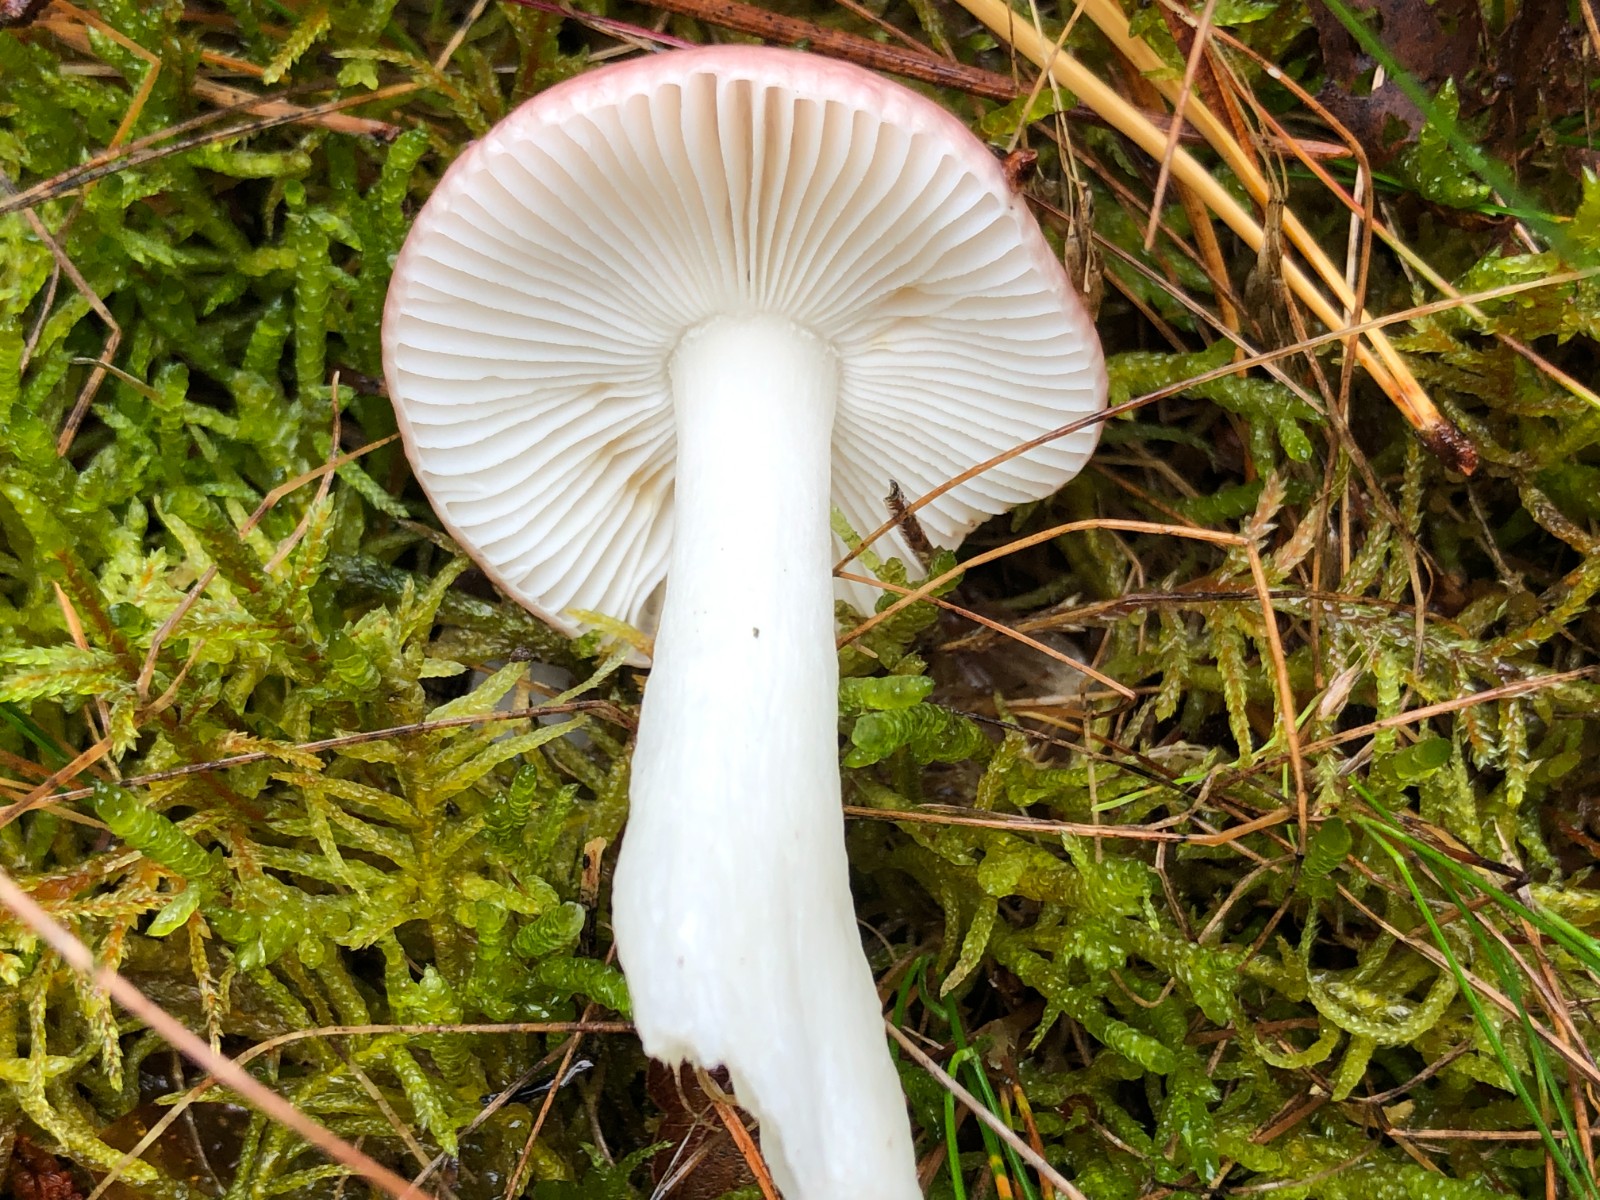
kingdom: Fungi
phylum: Basidiomycota
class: Agaricomycetes
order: Russulales
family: Russulaceae
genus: Russula
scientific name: Russula betularum
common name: bleg gift-skørhat
